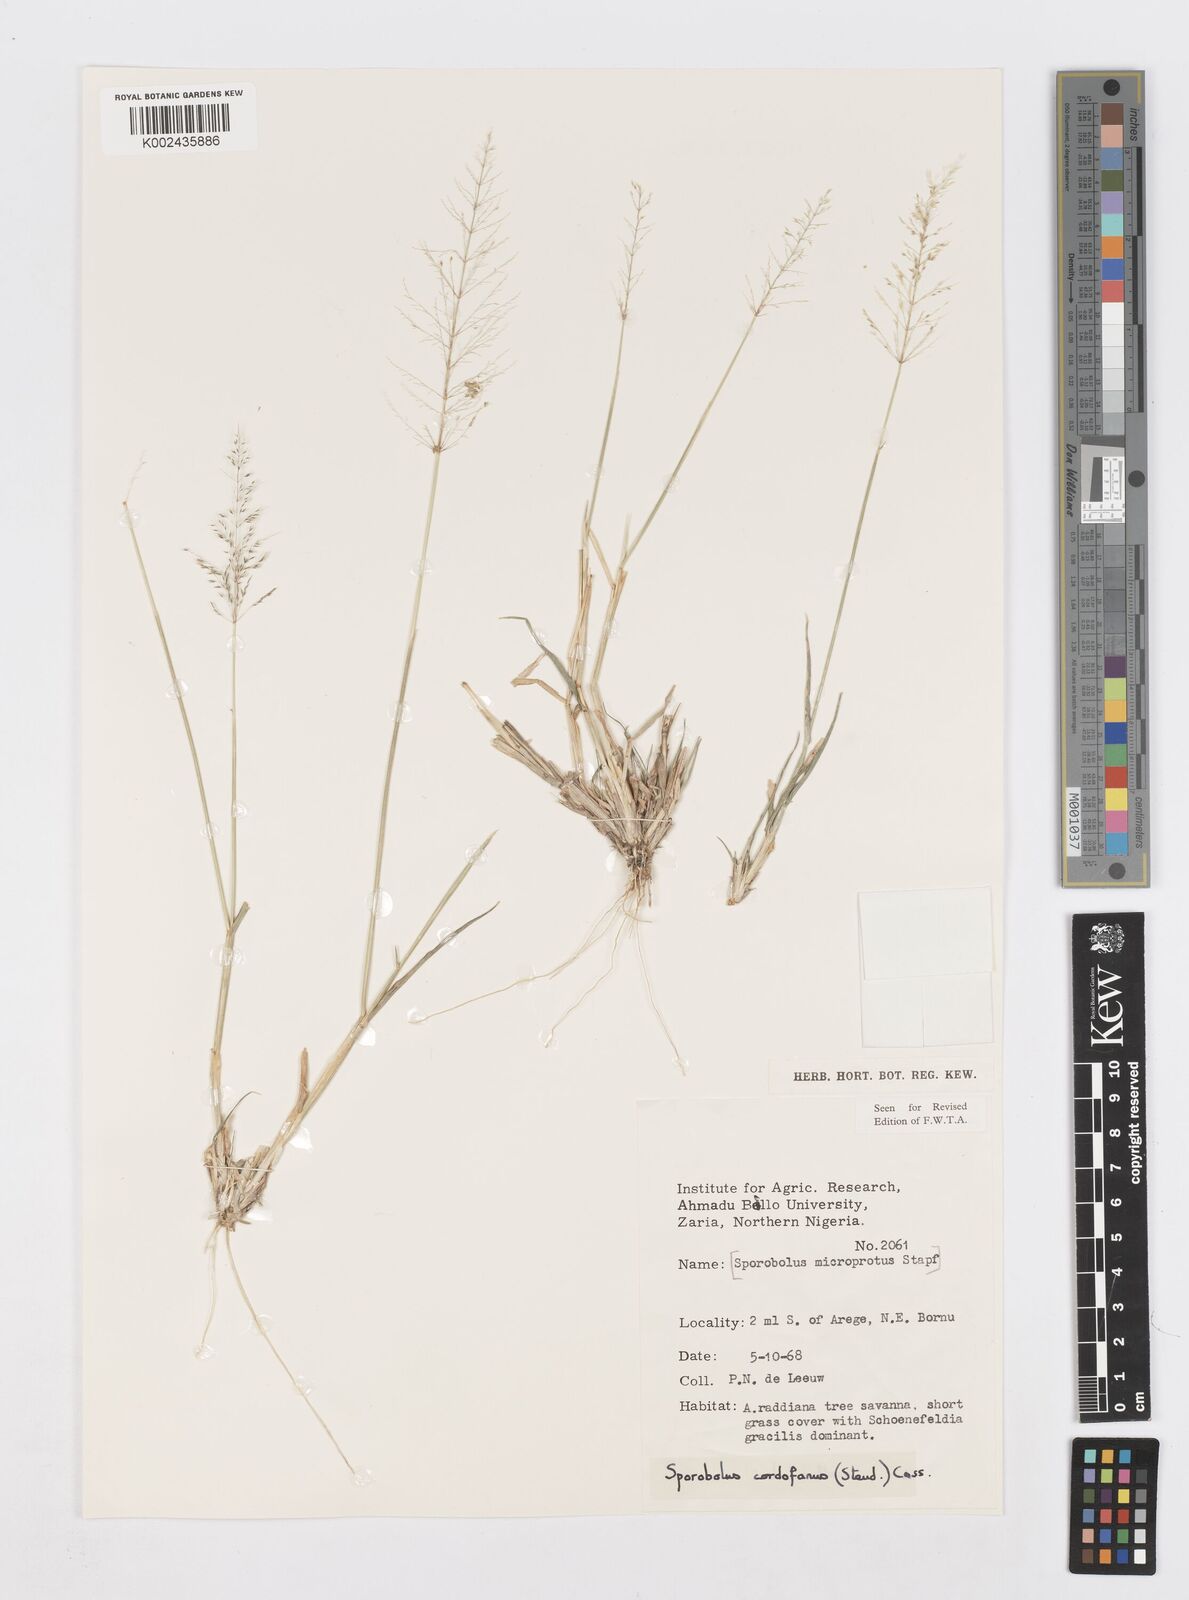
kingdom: Plantae
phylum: Tracheophyta
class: Liliopsida
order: Poales
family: Poaceae
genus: Sporobolus
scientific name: Sporobolus cordofanus
